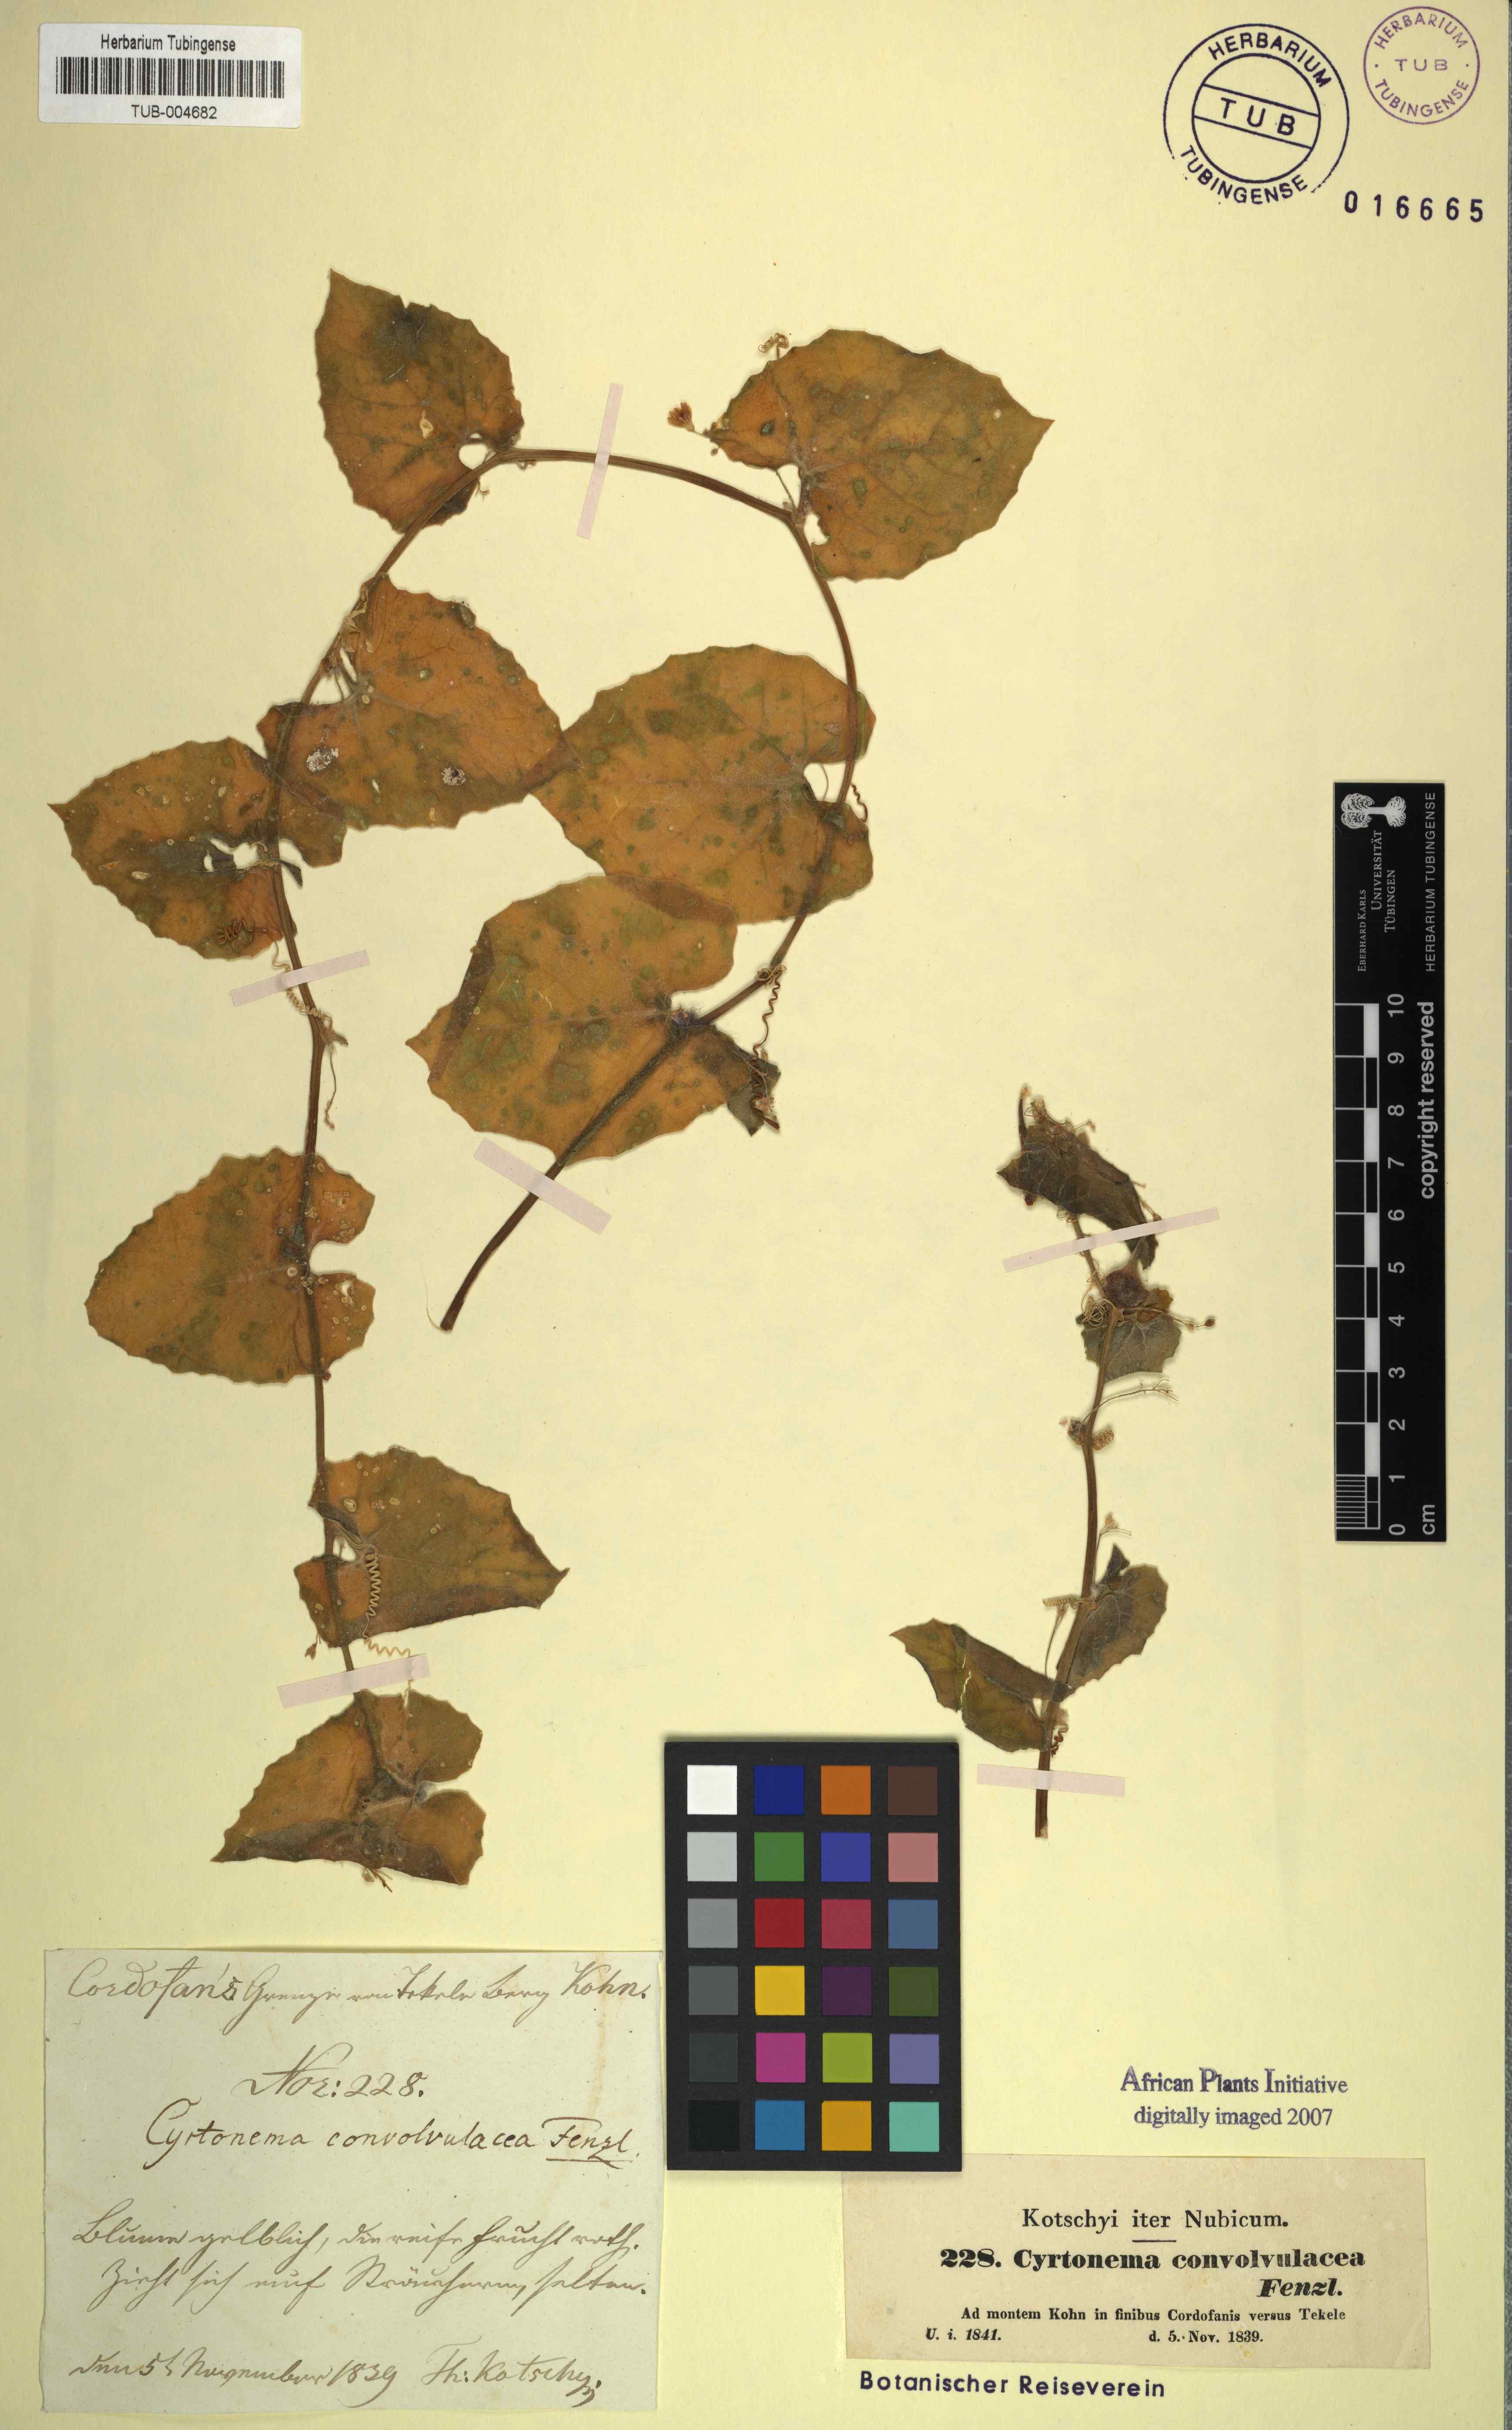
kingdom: Plantae
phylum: Tracheophyta
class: Magnoliopsida
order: Cucurbitales
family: Cucurbitaceae
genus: Kedrostis
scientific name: Kedrostis foetidissima
